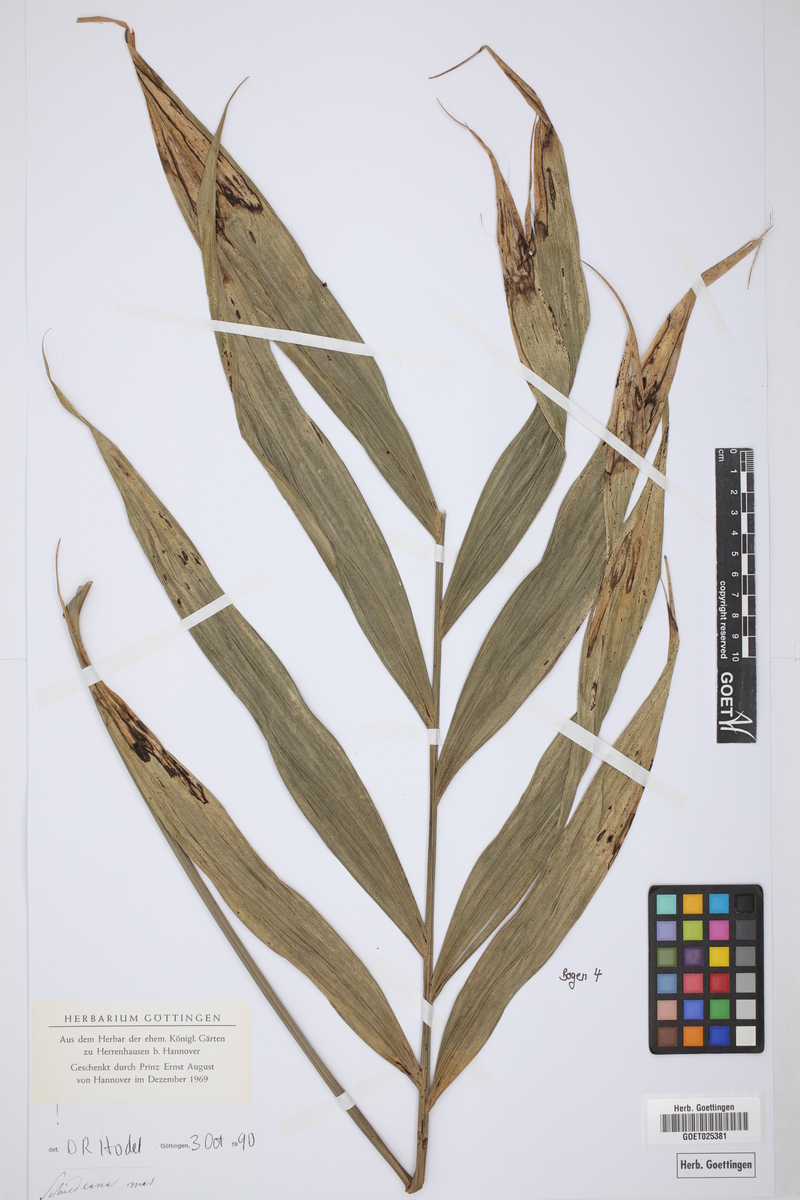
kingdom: Plantae
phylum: Tracheophyta
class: Liliopsida
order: Arecales
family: Arecaceae
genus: Chamaedorea
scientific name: Chamaedorea
